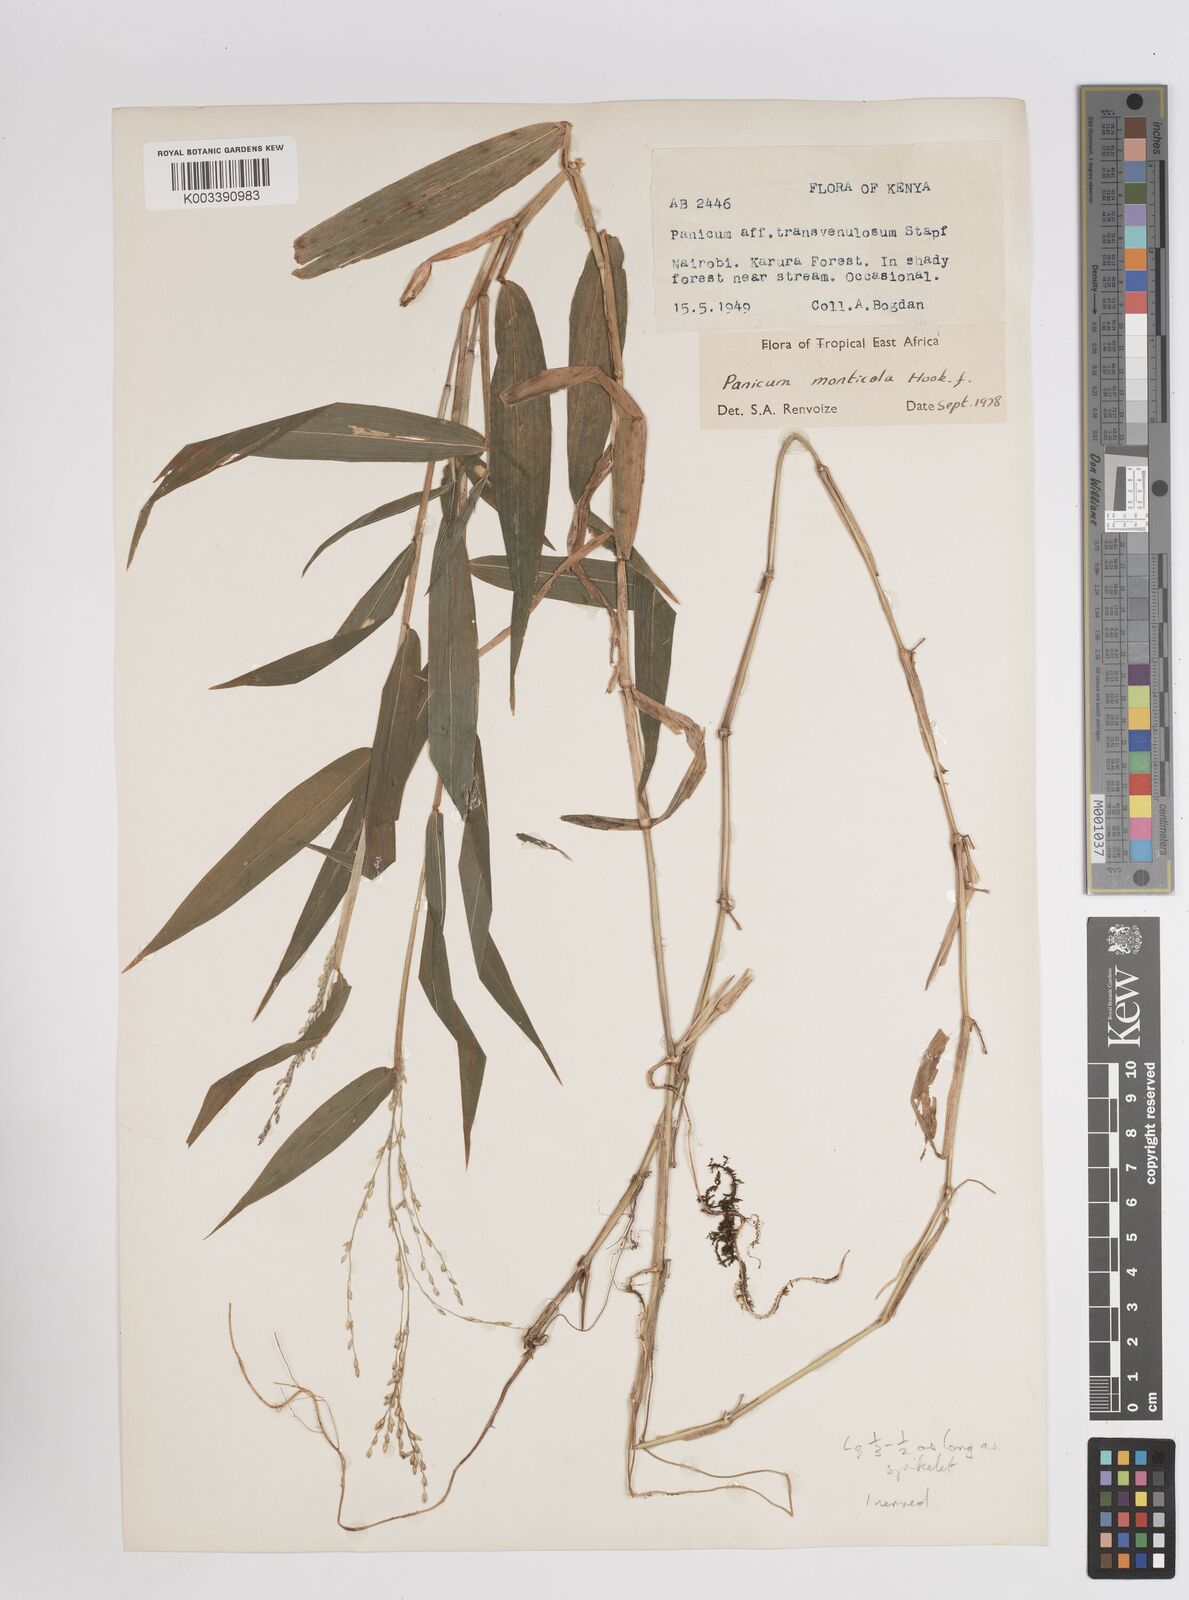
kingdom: Plantae
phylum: Tracheophyta
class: Liliopsida
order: Poales
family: Poaceae
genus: Panicum
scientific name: Panicum monticola
